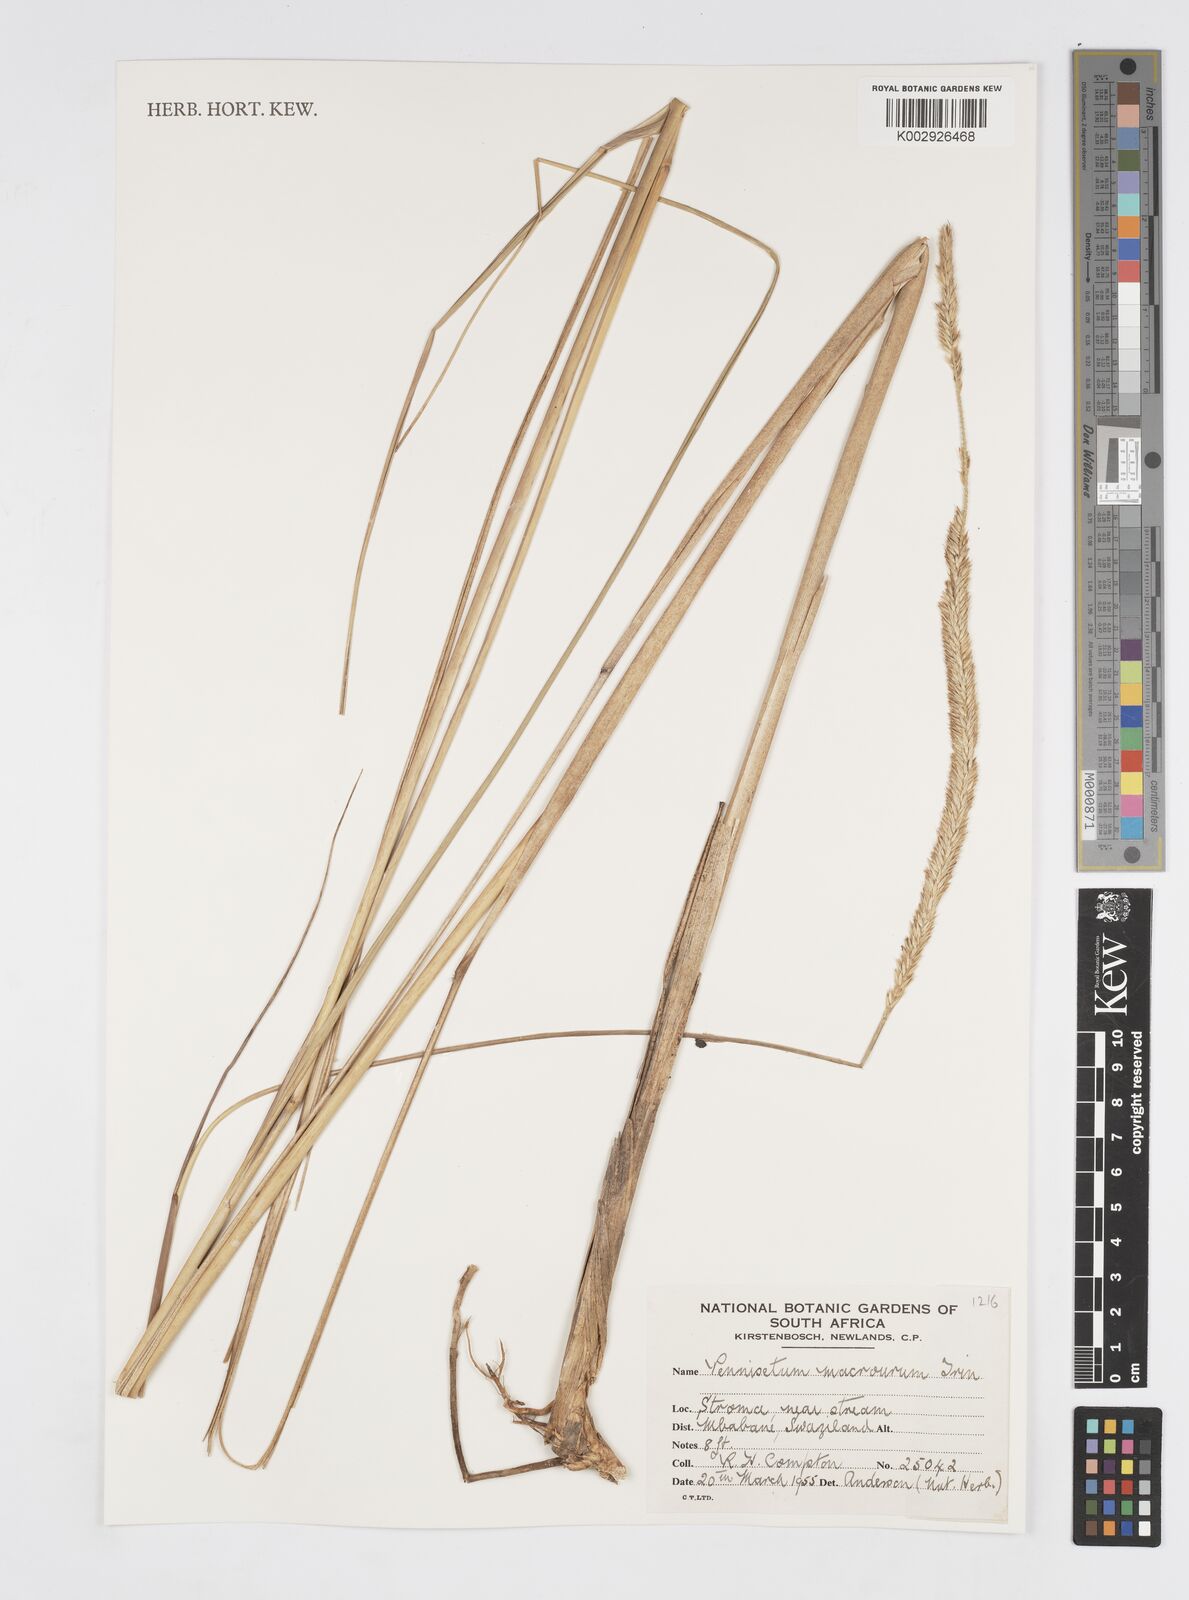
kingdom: Plantae
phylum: Tracheophyta
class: Liliopsida
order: Poales
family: Poaceae
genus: Cenchrus
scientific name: Cenchrus caudatus
